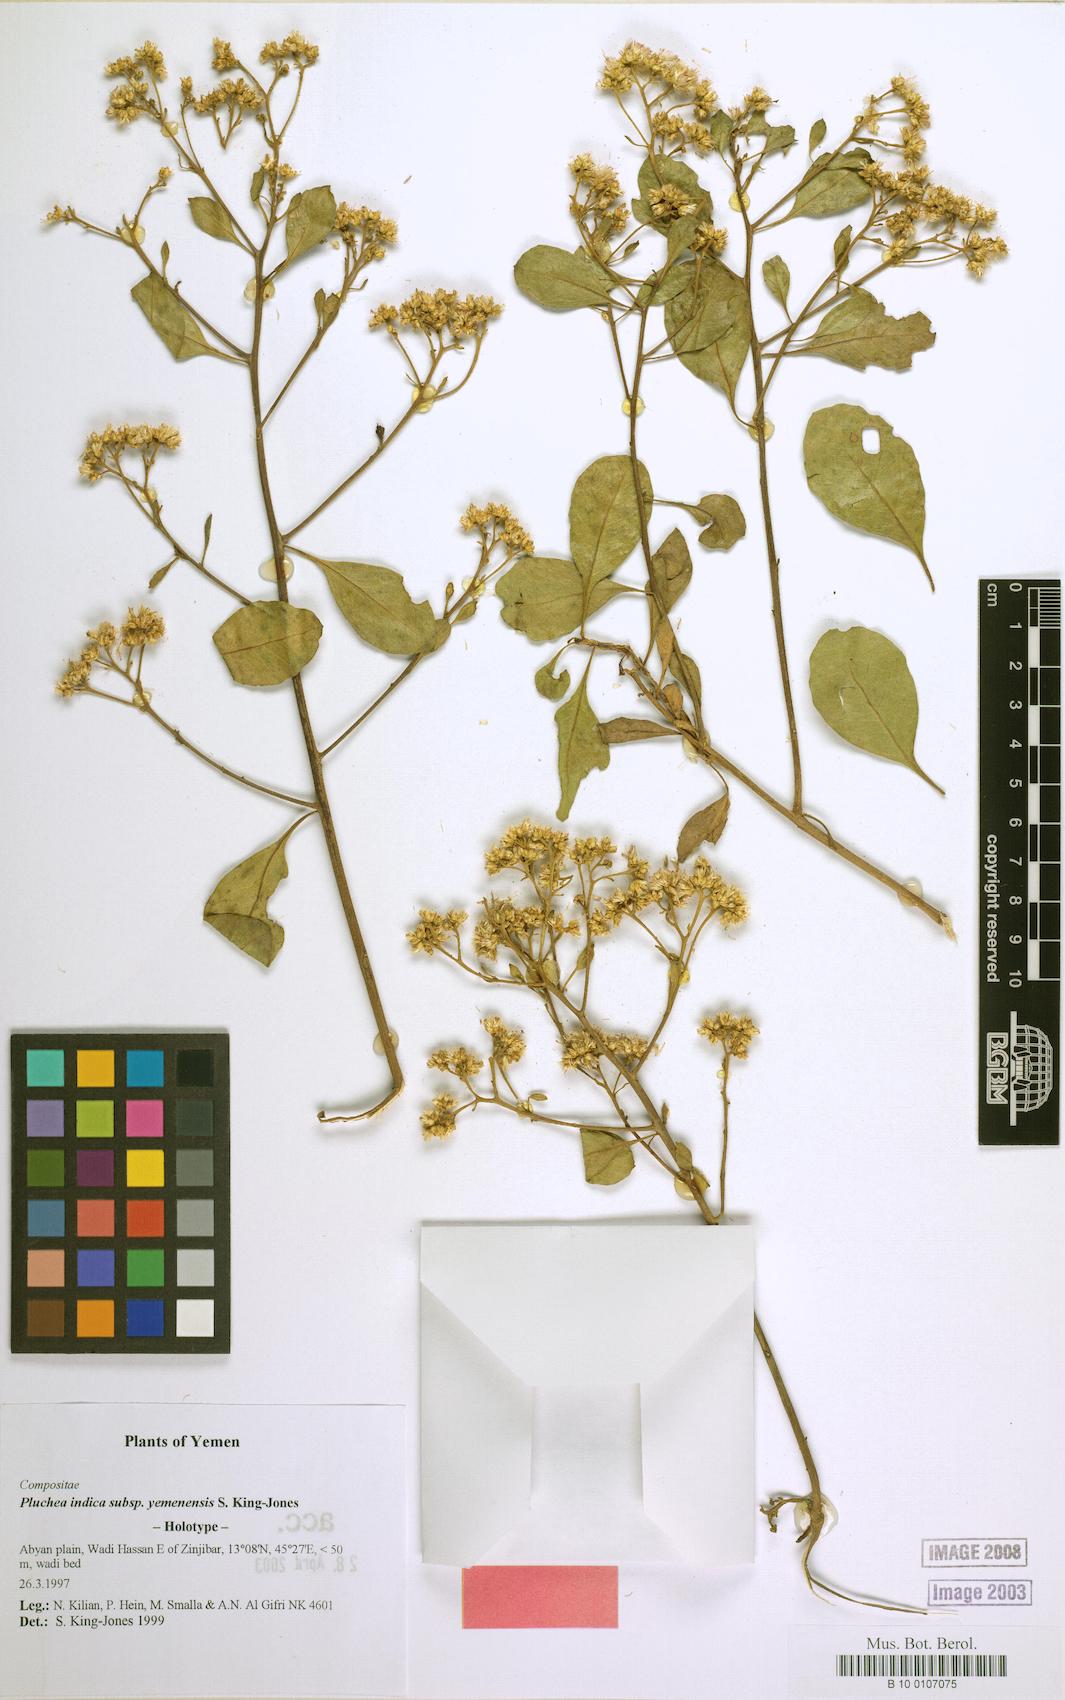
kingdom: Plantae
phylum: Tracheophyta
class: Magnoliopsida
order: Asterales
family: Asteraceae
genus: Pluchea
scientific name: Pluchea indica
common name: Indian fleabane
